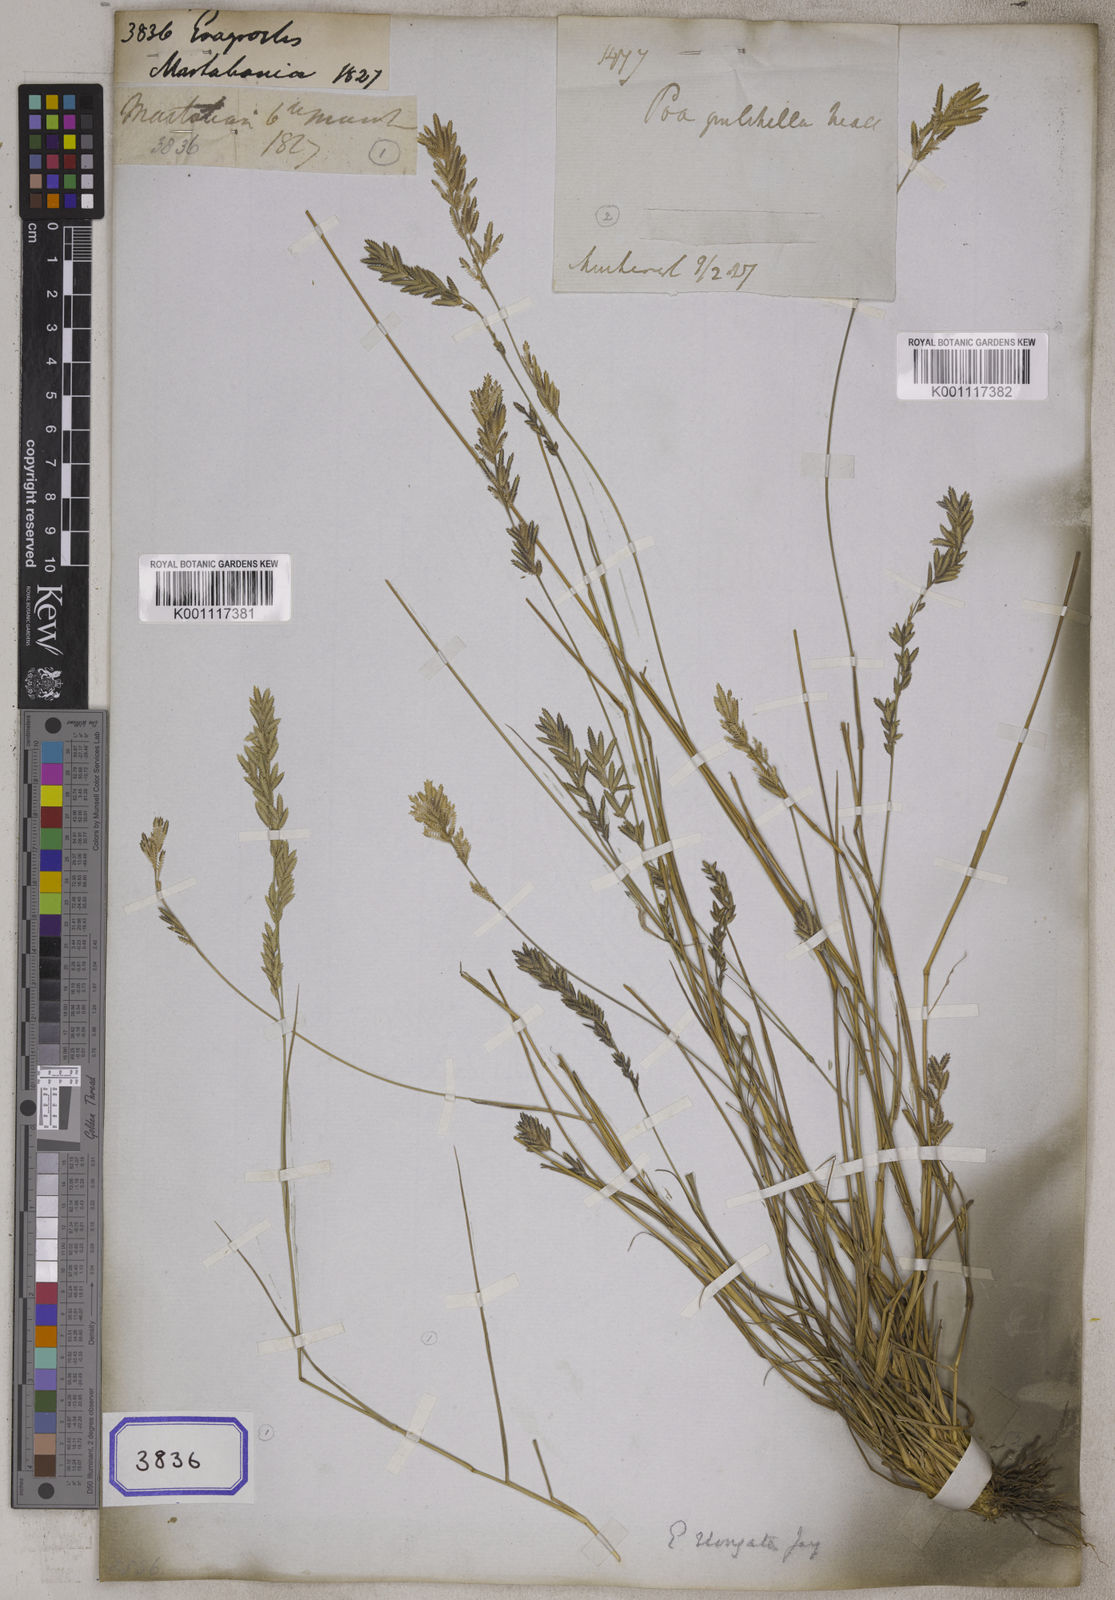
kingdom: Plantae
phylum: Tracheophyta
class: Liliopsida
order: Poales
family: Poaceae
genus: Eragrostis
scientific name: Eragrostis
